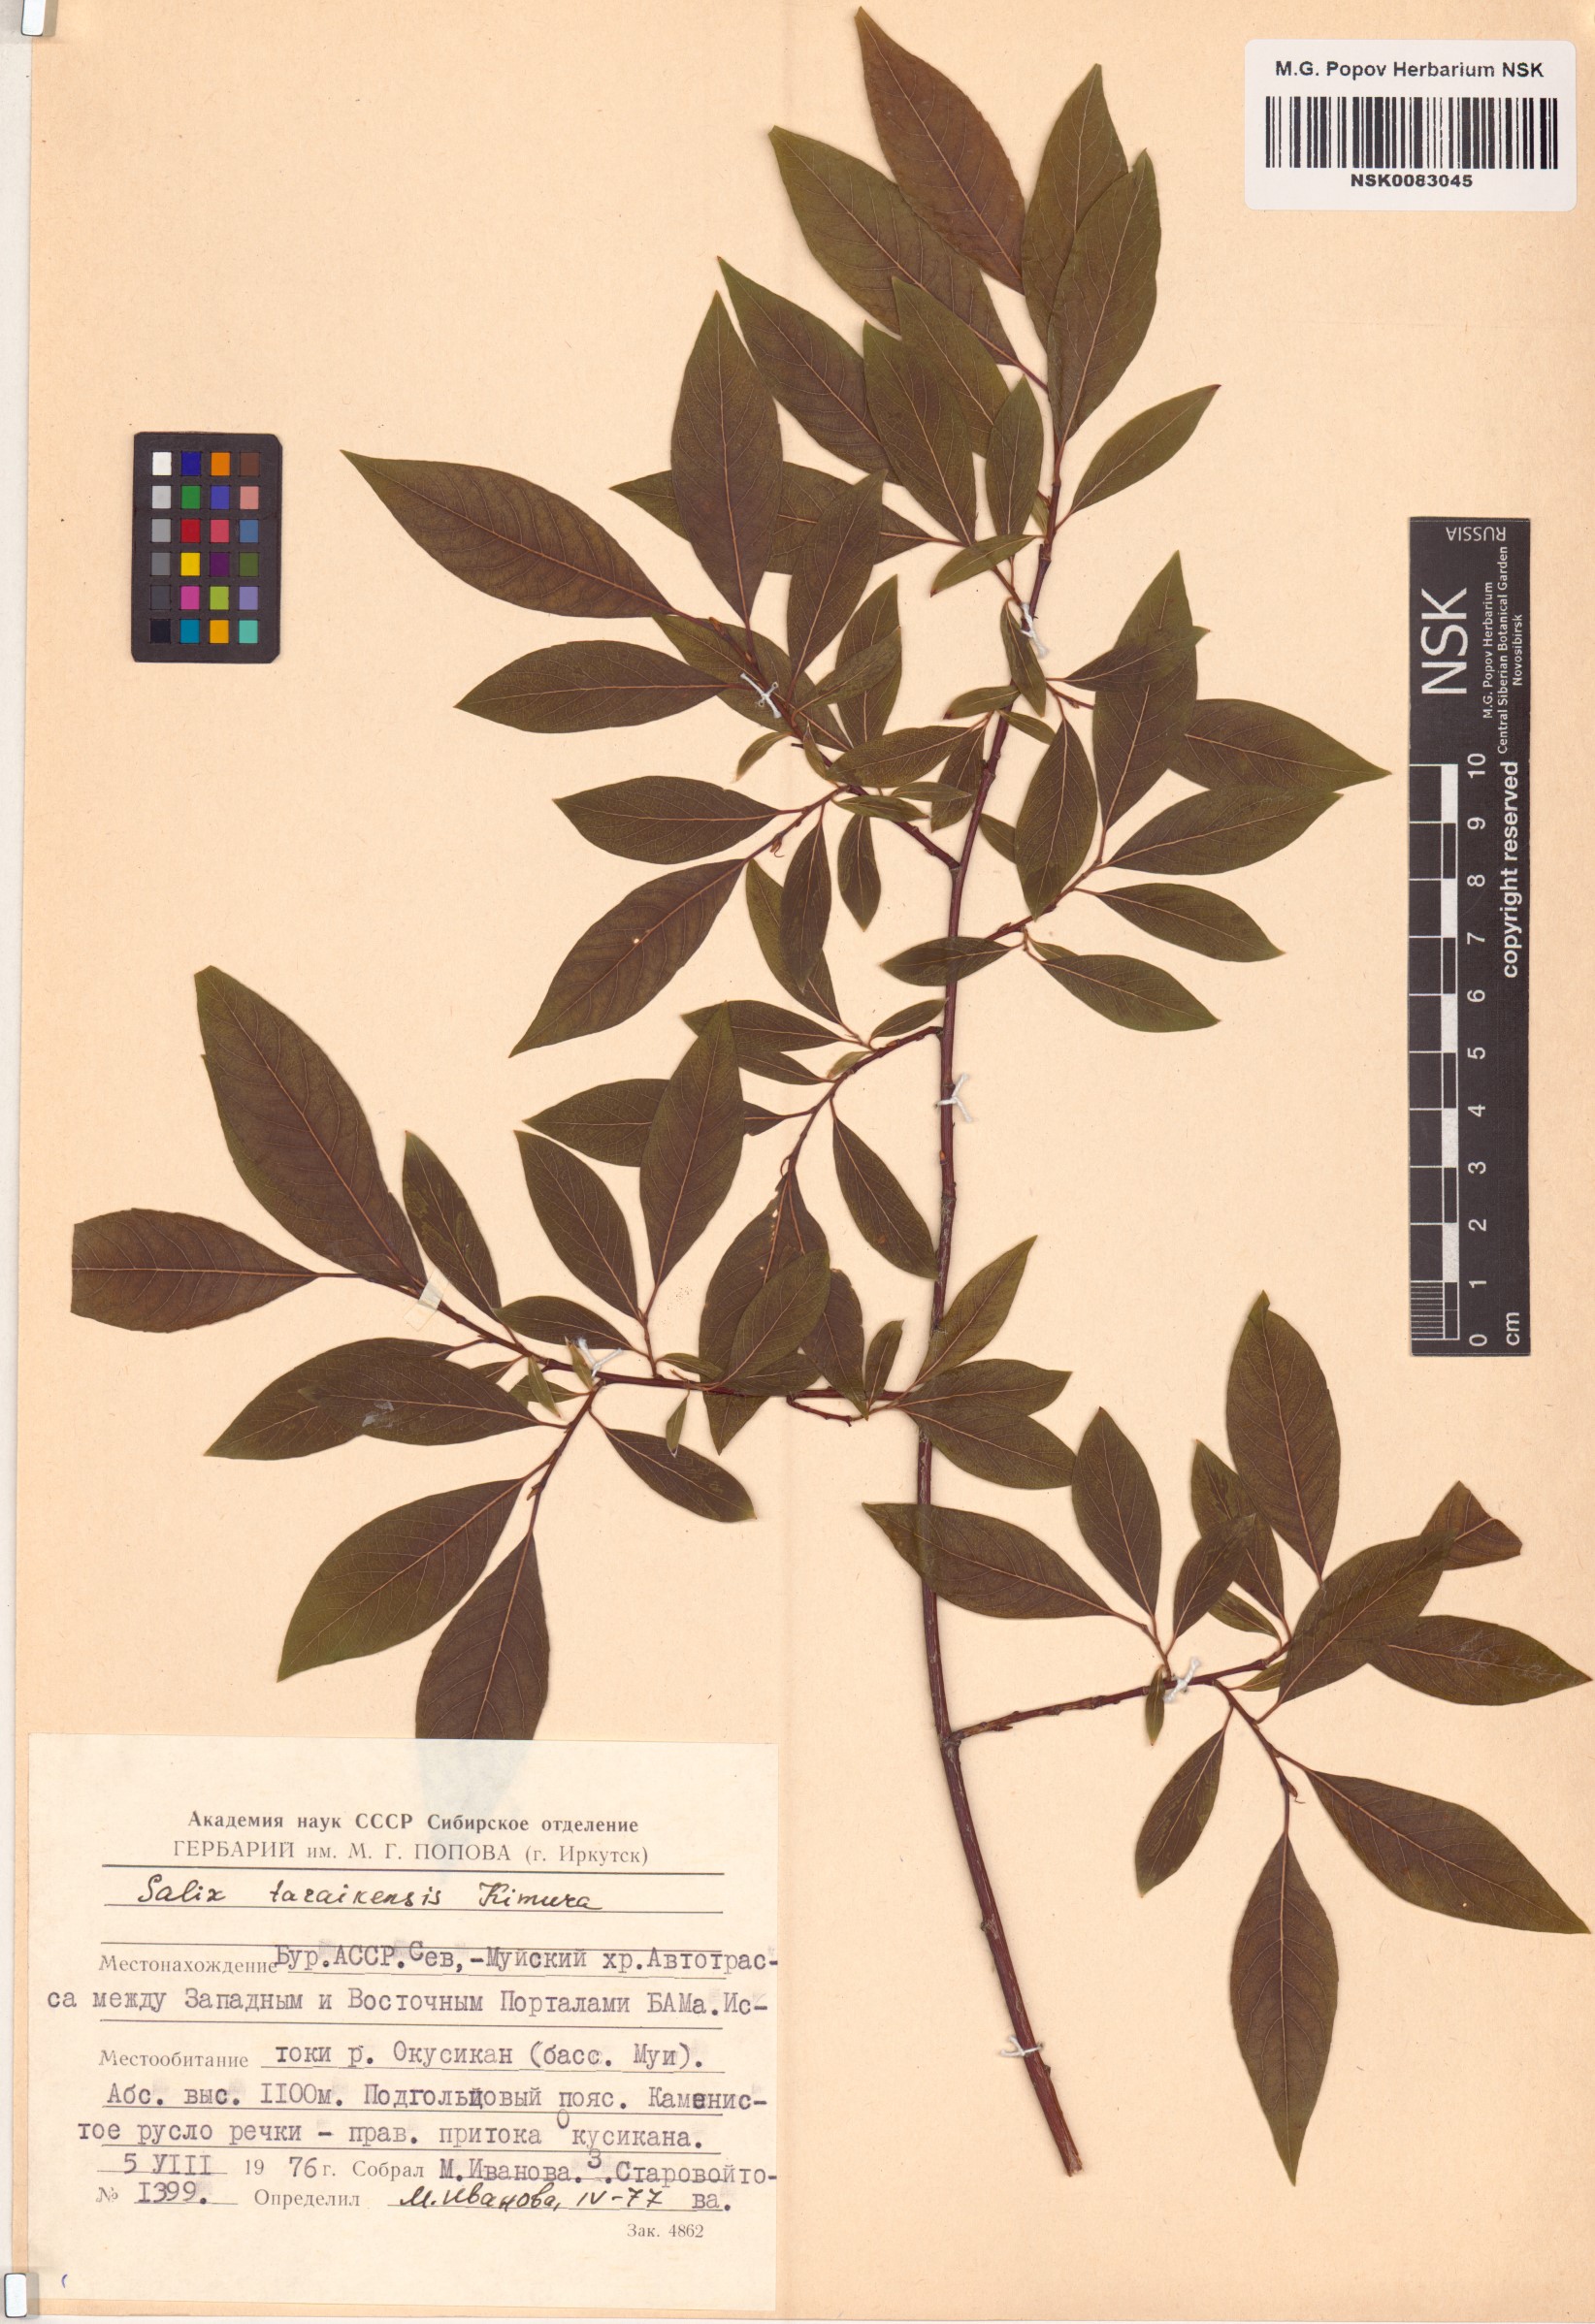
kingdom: Plantae
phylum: Tracheophyta
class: Magnoliopsida
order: Malpighiales
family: Salicaceae
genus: Salix
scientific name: Salix taraikensis
